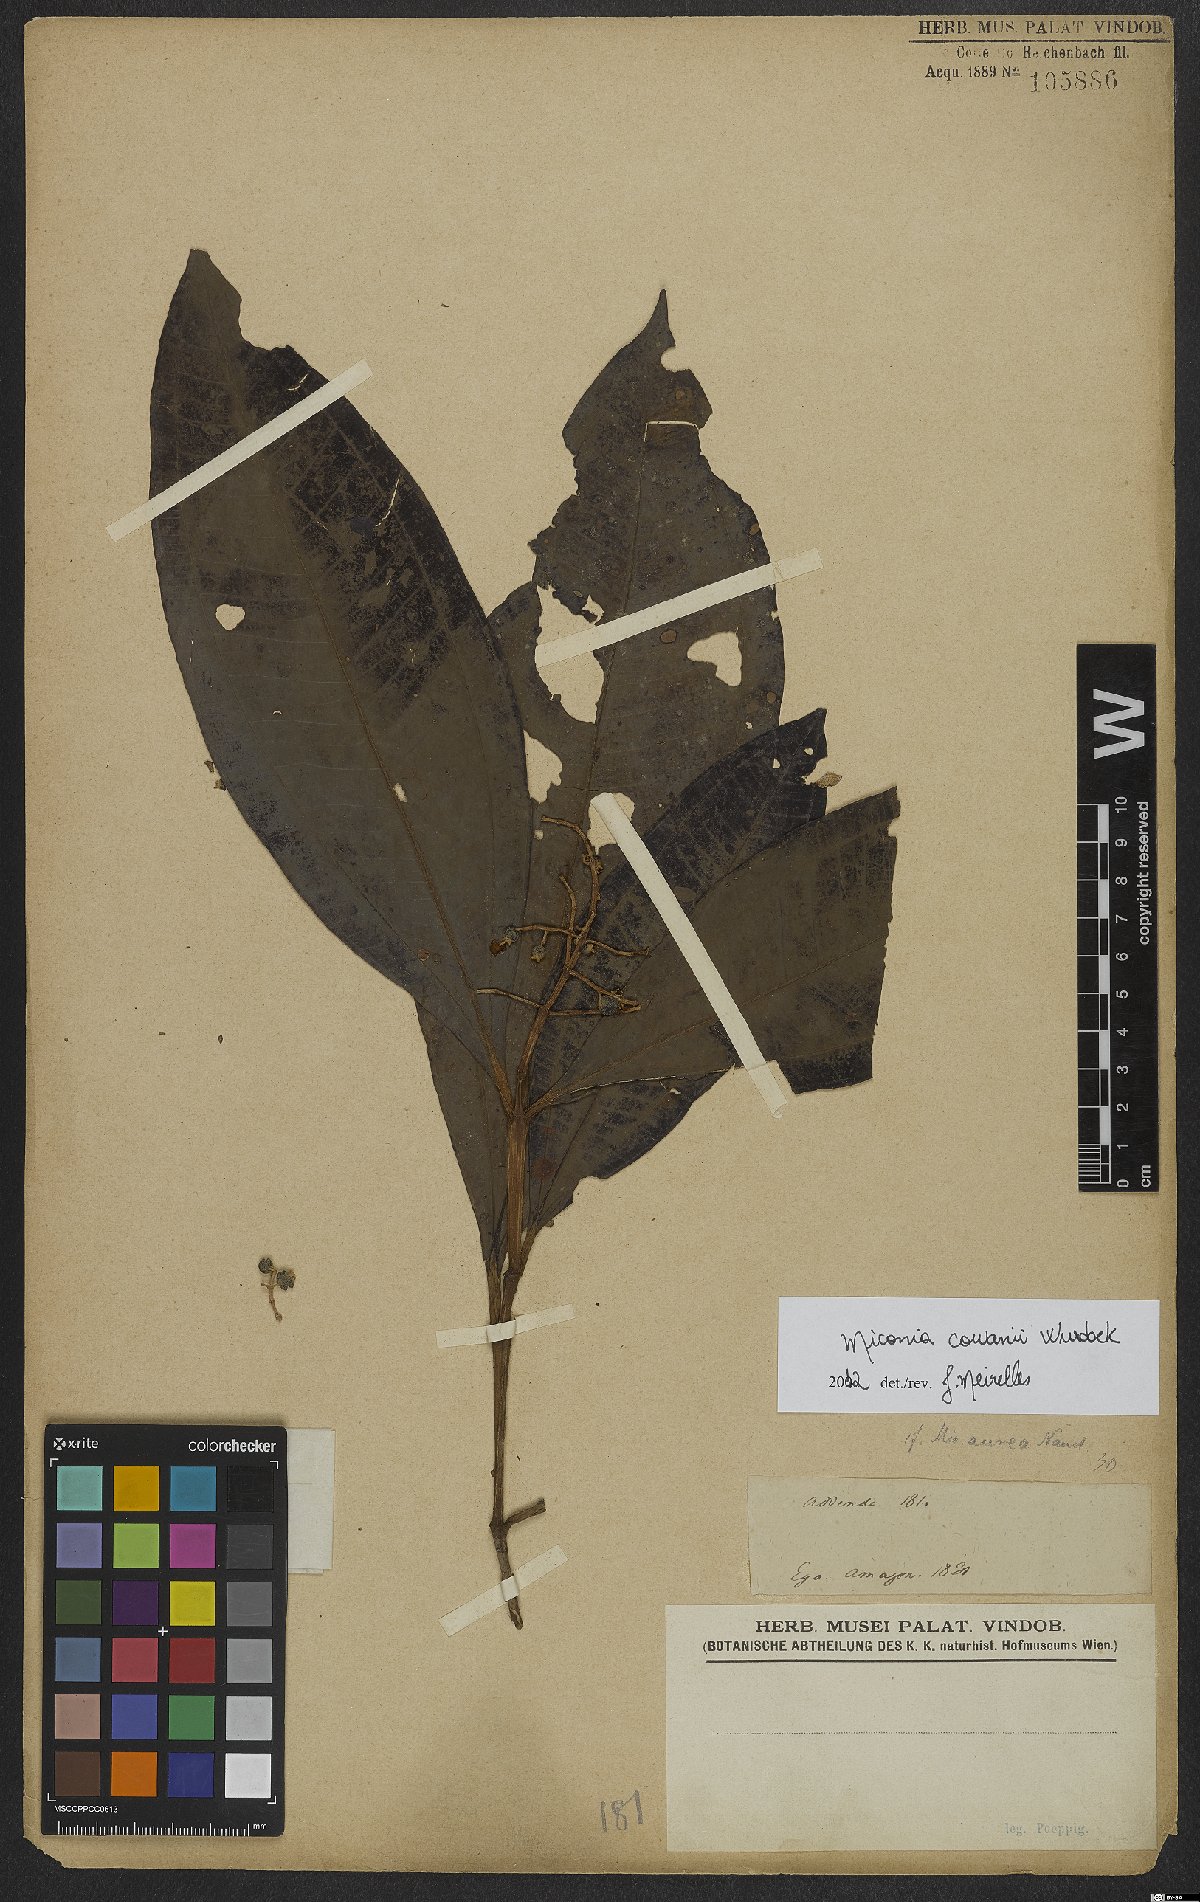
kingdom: Plantae
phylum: Tracheophyta
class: Magnoliopsida
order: Myrtales
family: Melastomataceae
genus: Miconia
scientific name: Miconia cowanii
